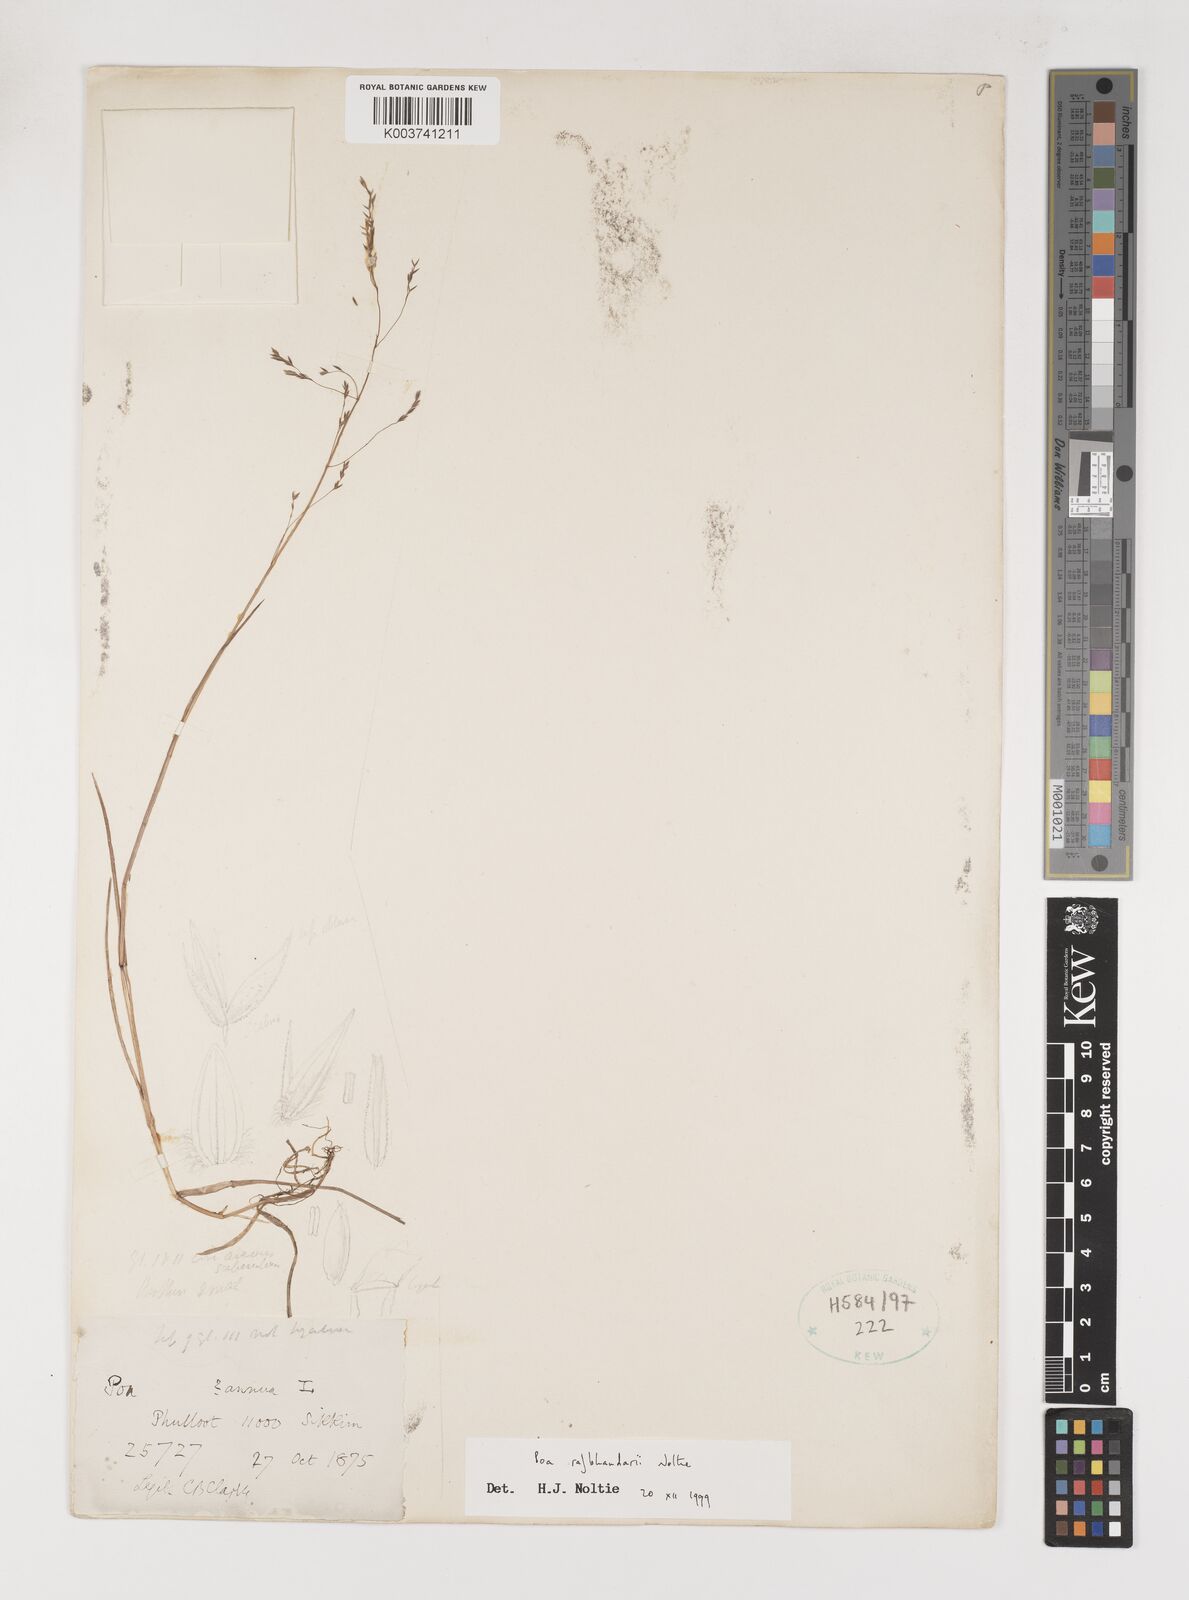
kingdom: Plantae
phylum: Tracheophyta
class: Liliopsida
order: Poales
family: Poaceae
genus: Poa
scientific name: Poa rajbhandarii
